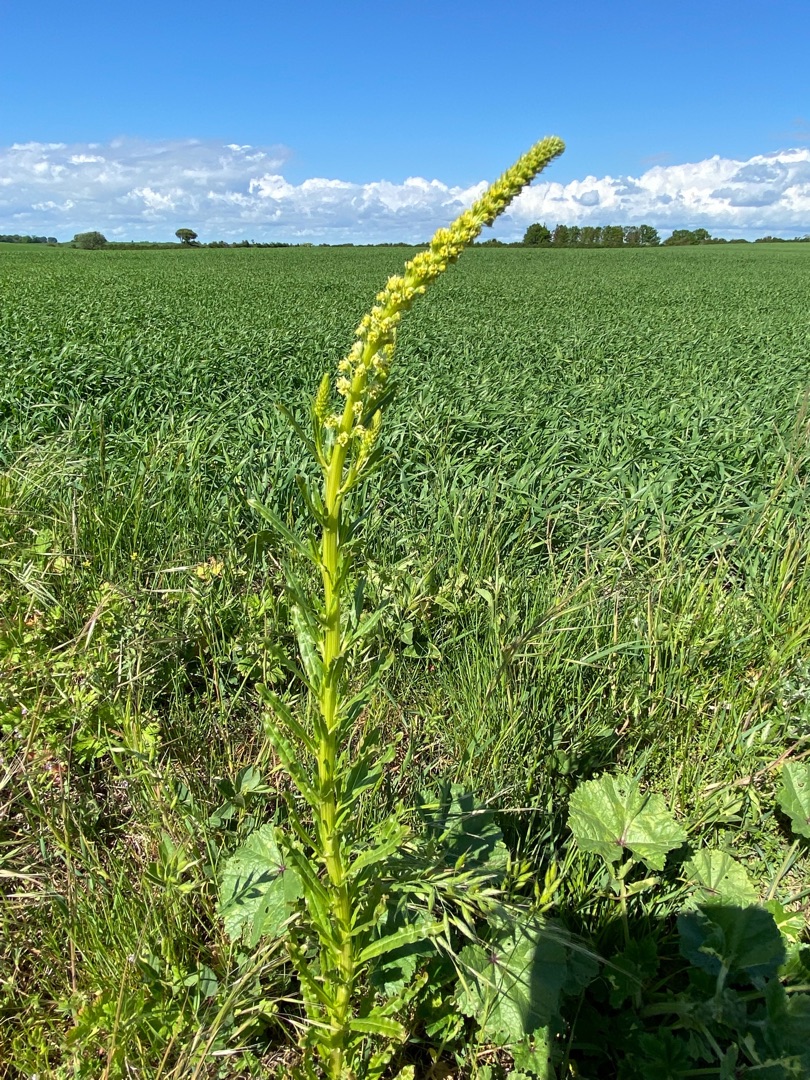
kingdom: Plantae
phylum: Tracheophyta
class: Magnoliopsida
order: Brassicales
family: Resedaceae
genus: Reseda
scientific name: Reseda lutea
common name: Gul reseda
